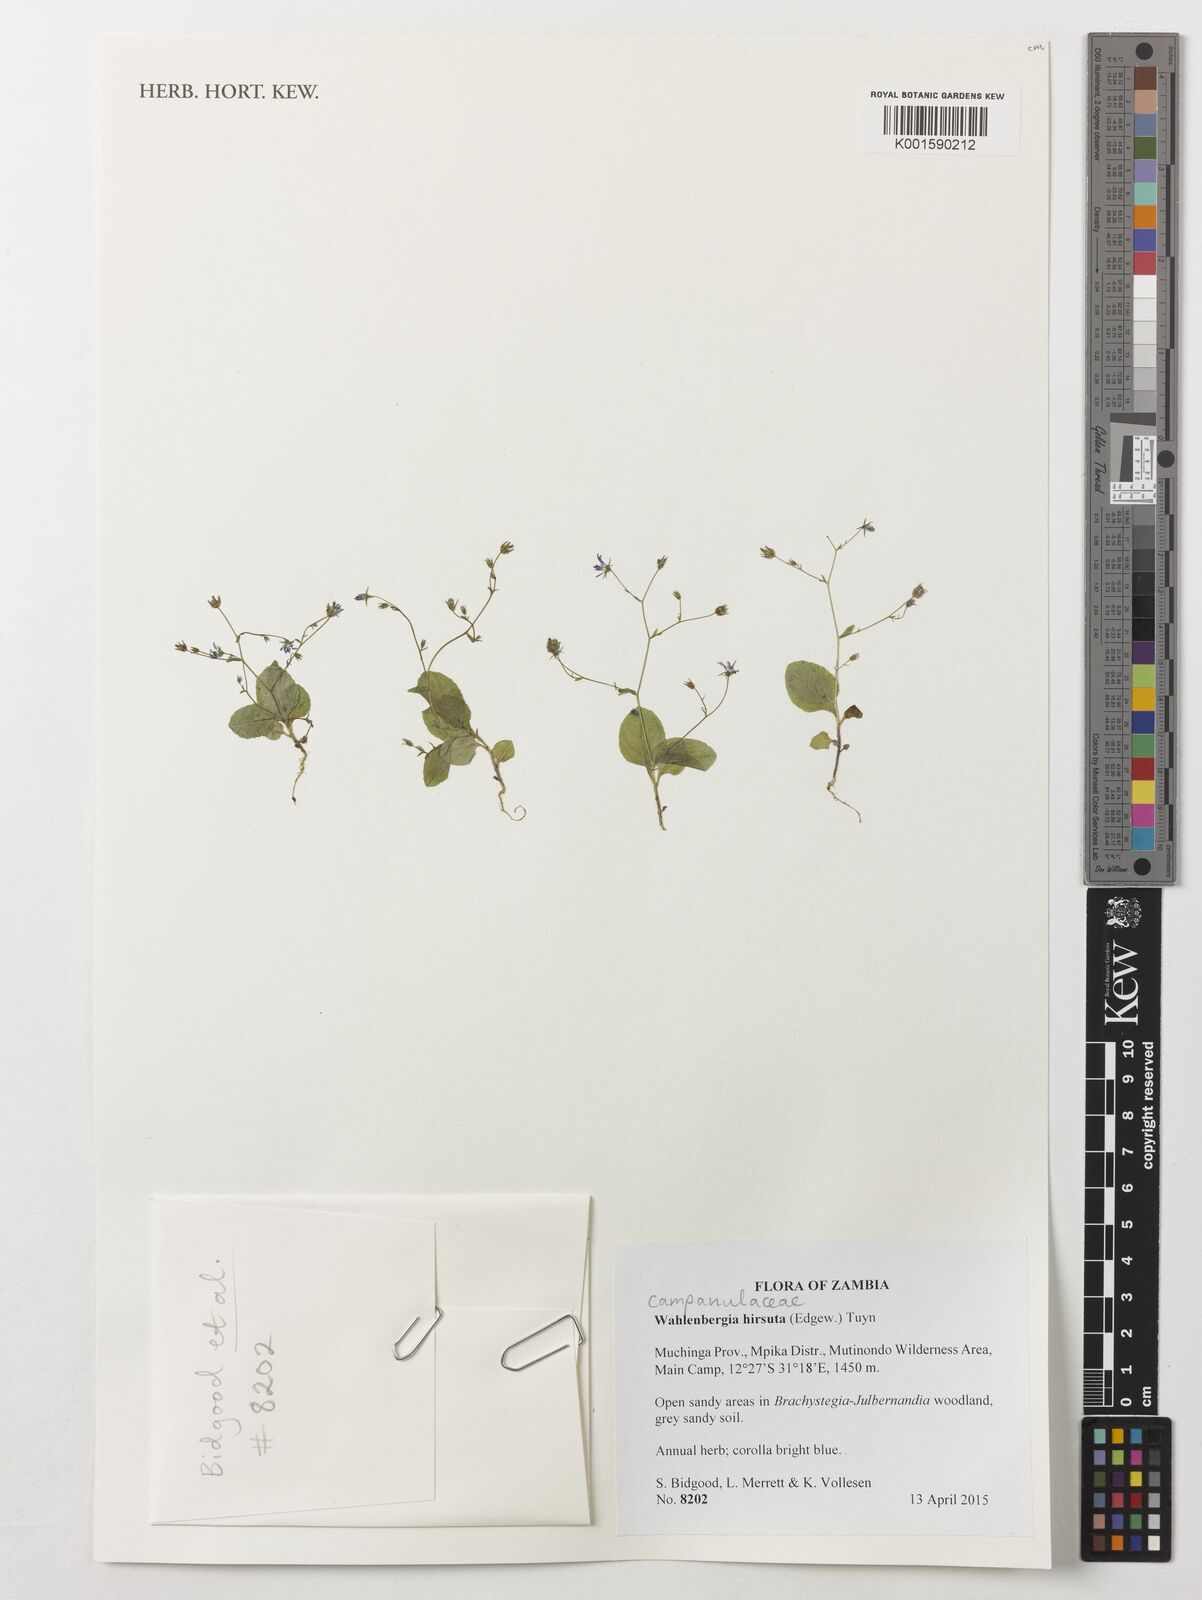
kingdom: Plantae
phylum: Tracheophyta
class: Magnoliopsida
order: Asterales
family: Campanulaceae
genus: Wahlenbergia
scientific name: Wahlenbergia hirsuta
